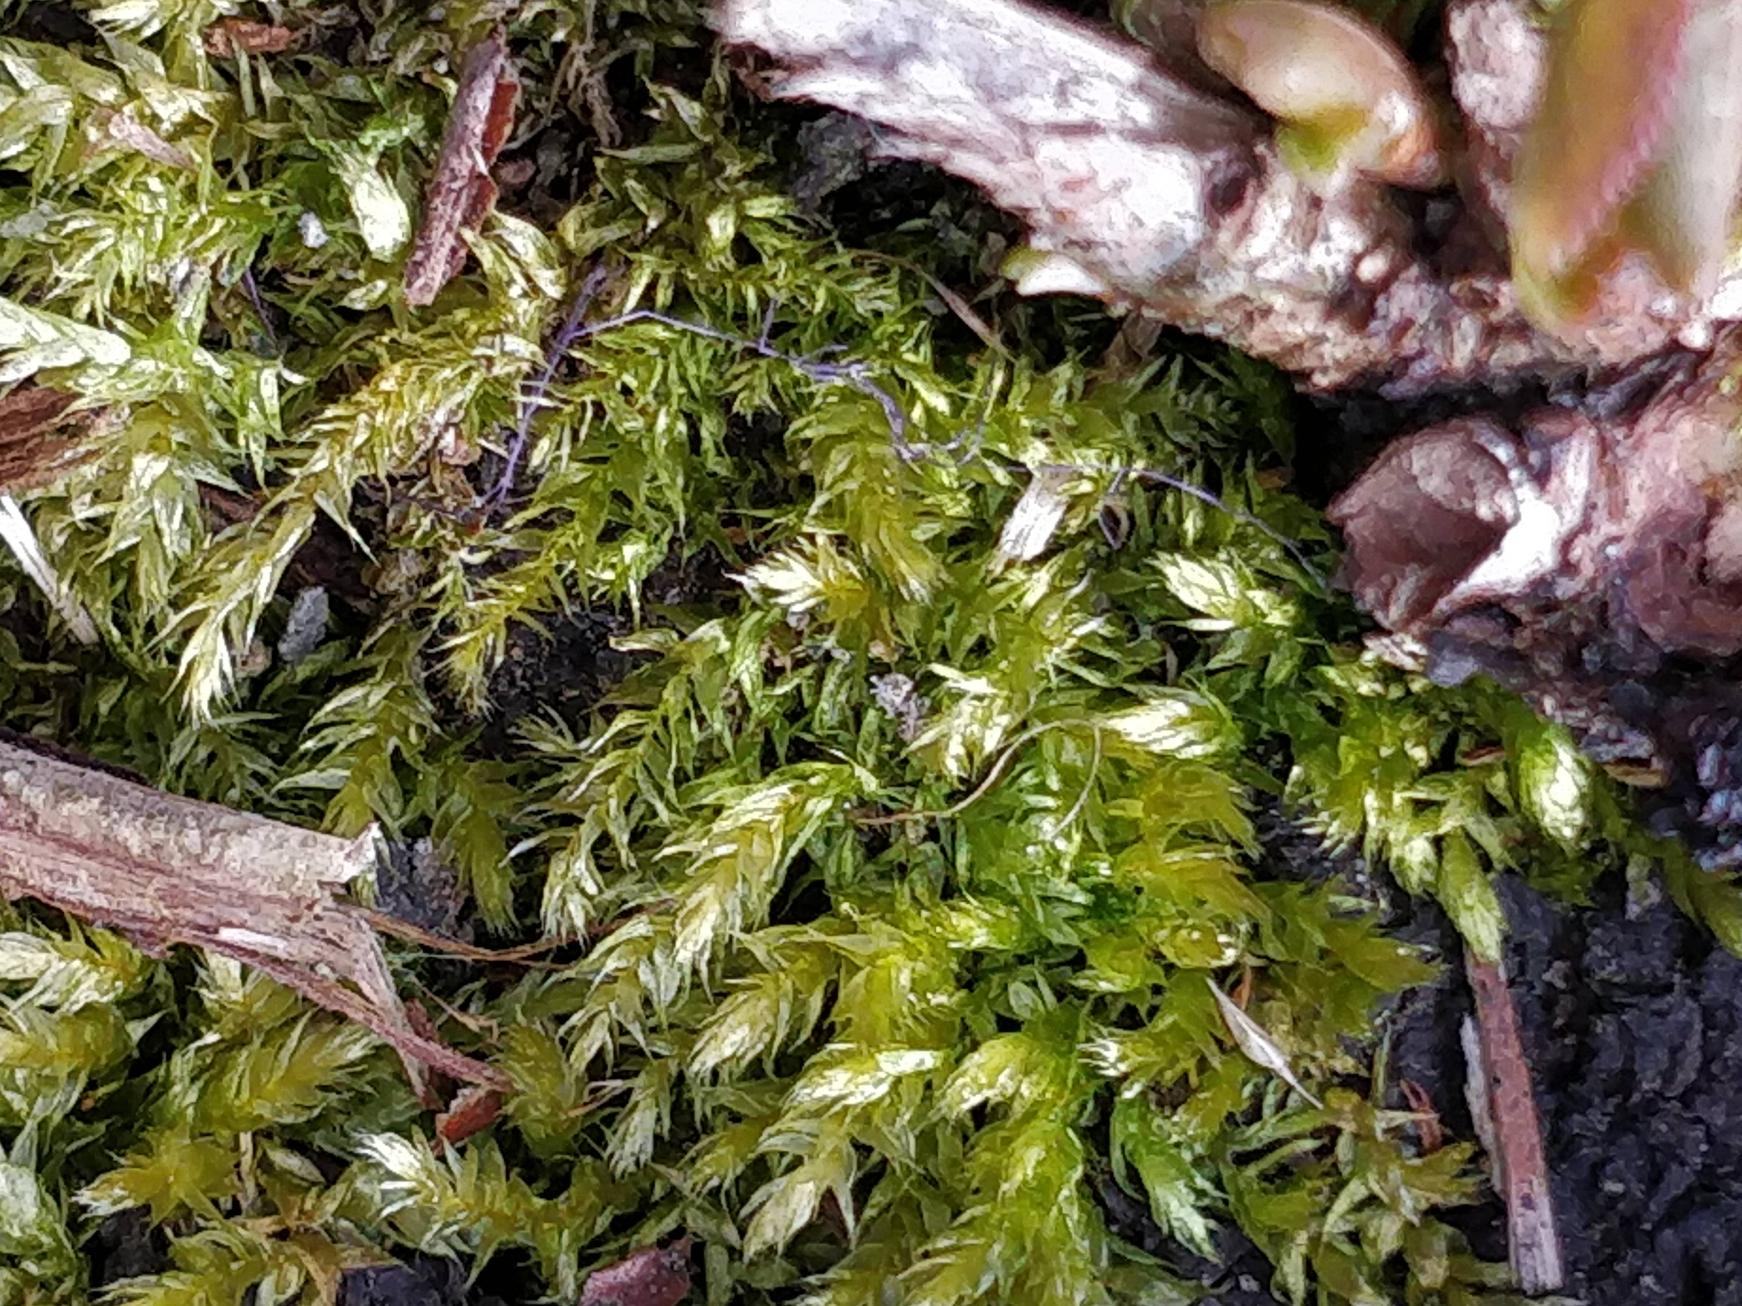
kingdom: Plantae
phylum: Bryophyta
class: Bryopsida
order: Hypnales
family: Brachytheciaceae
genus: Brachythecium
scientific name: Brachythecium rutabulum
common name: Almindelig kortkapsel
